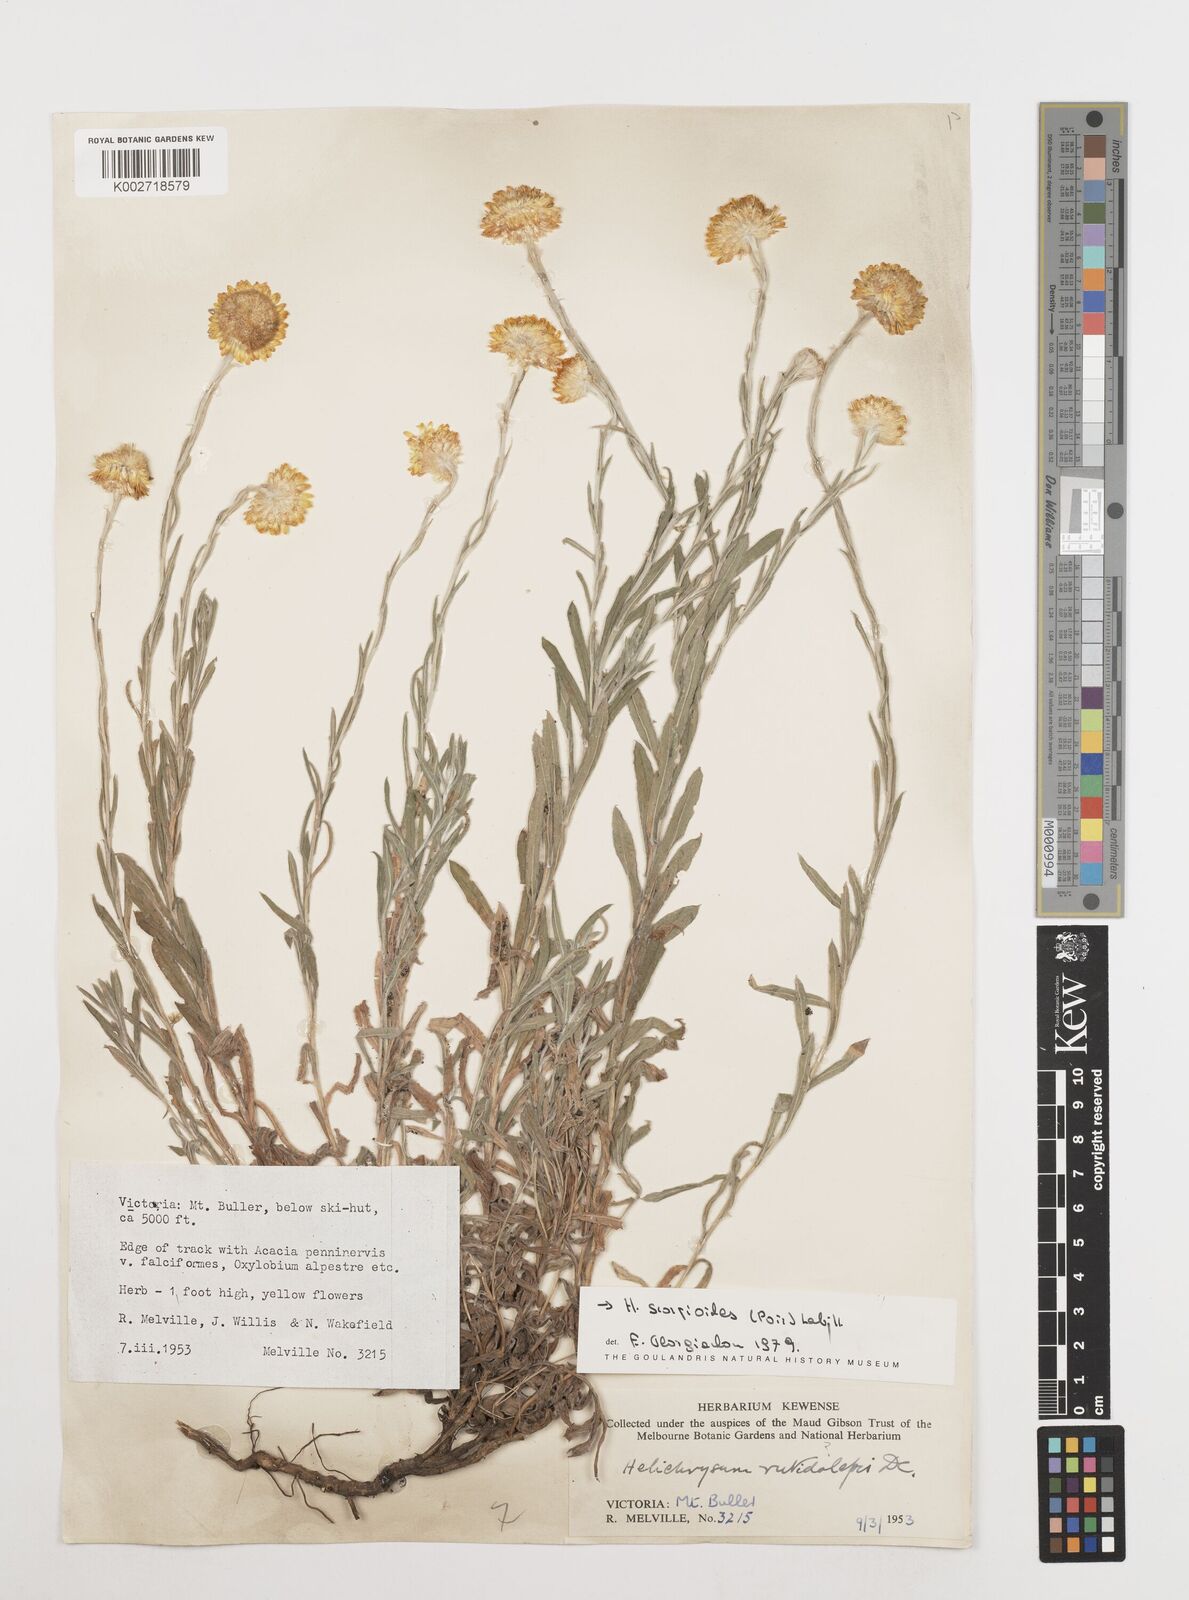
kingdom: Plantae
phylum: Tracheophyta
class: Magnoliopsida
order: Asterales
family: Asteraceae
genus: Coronidium
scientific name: Coronidium scorpioides
